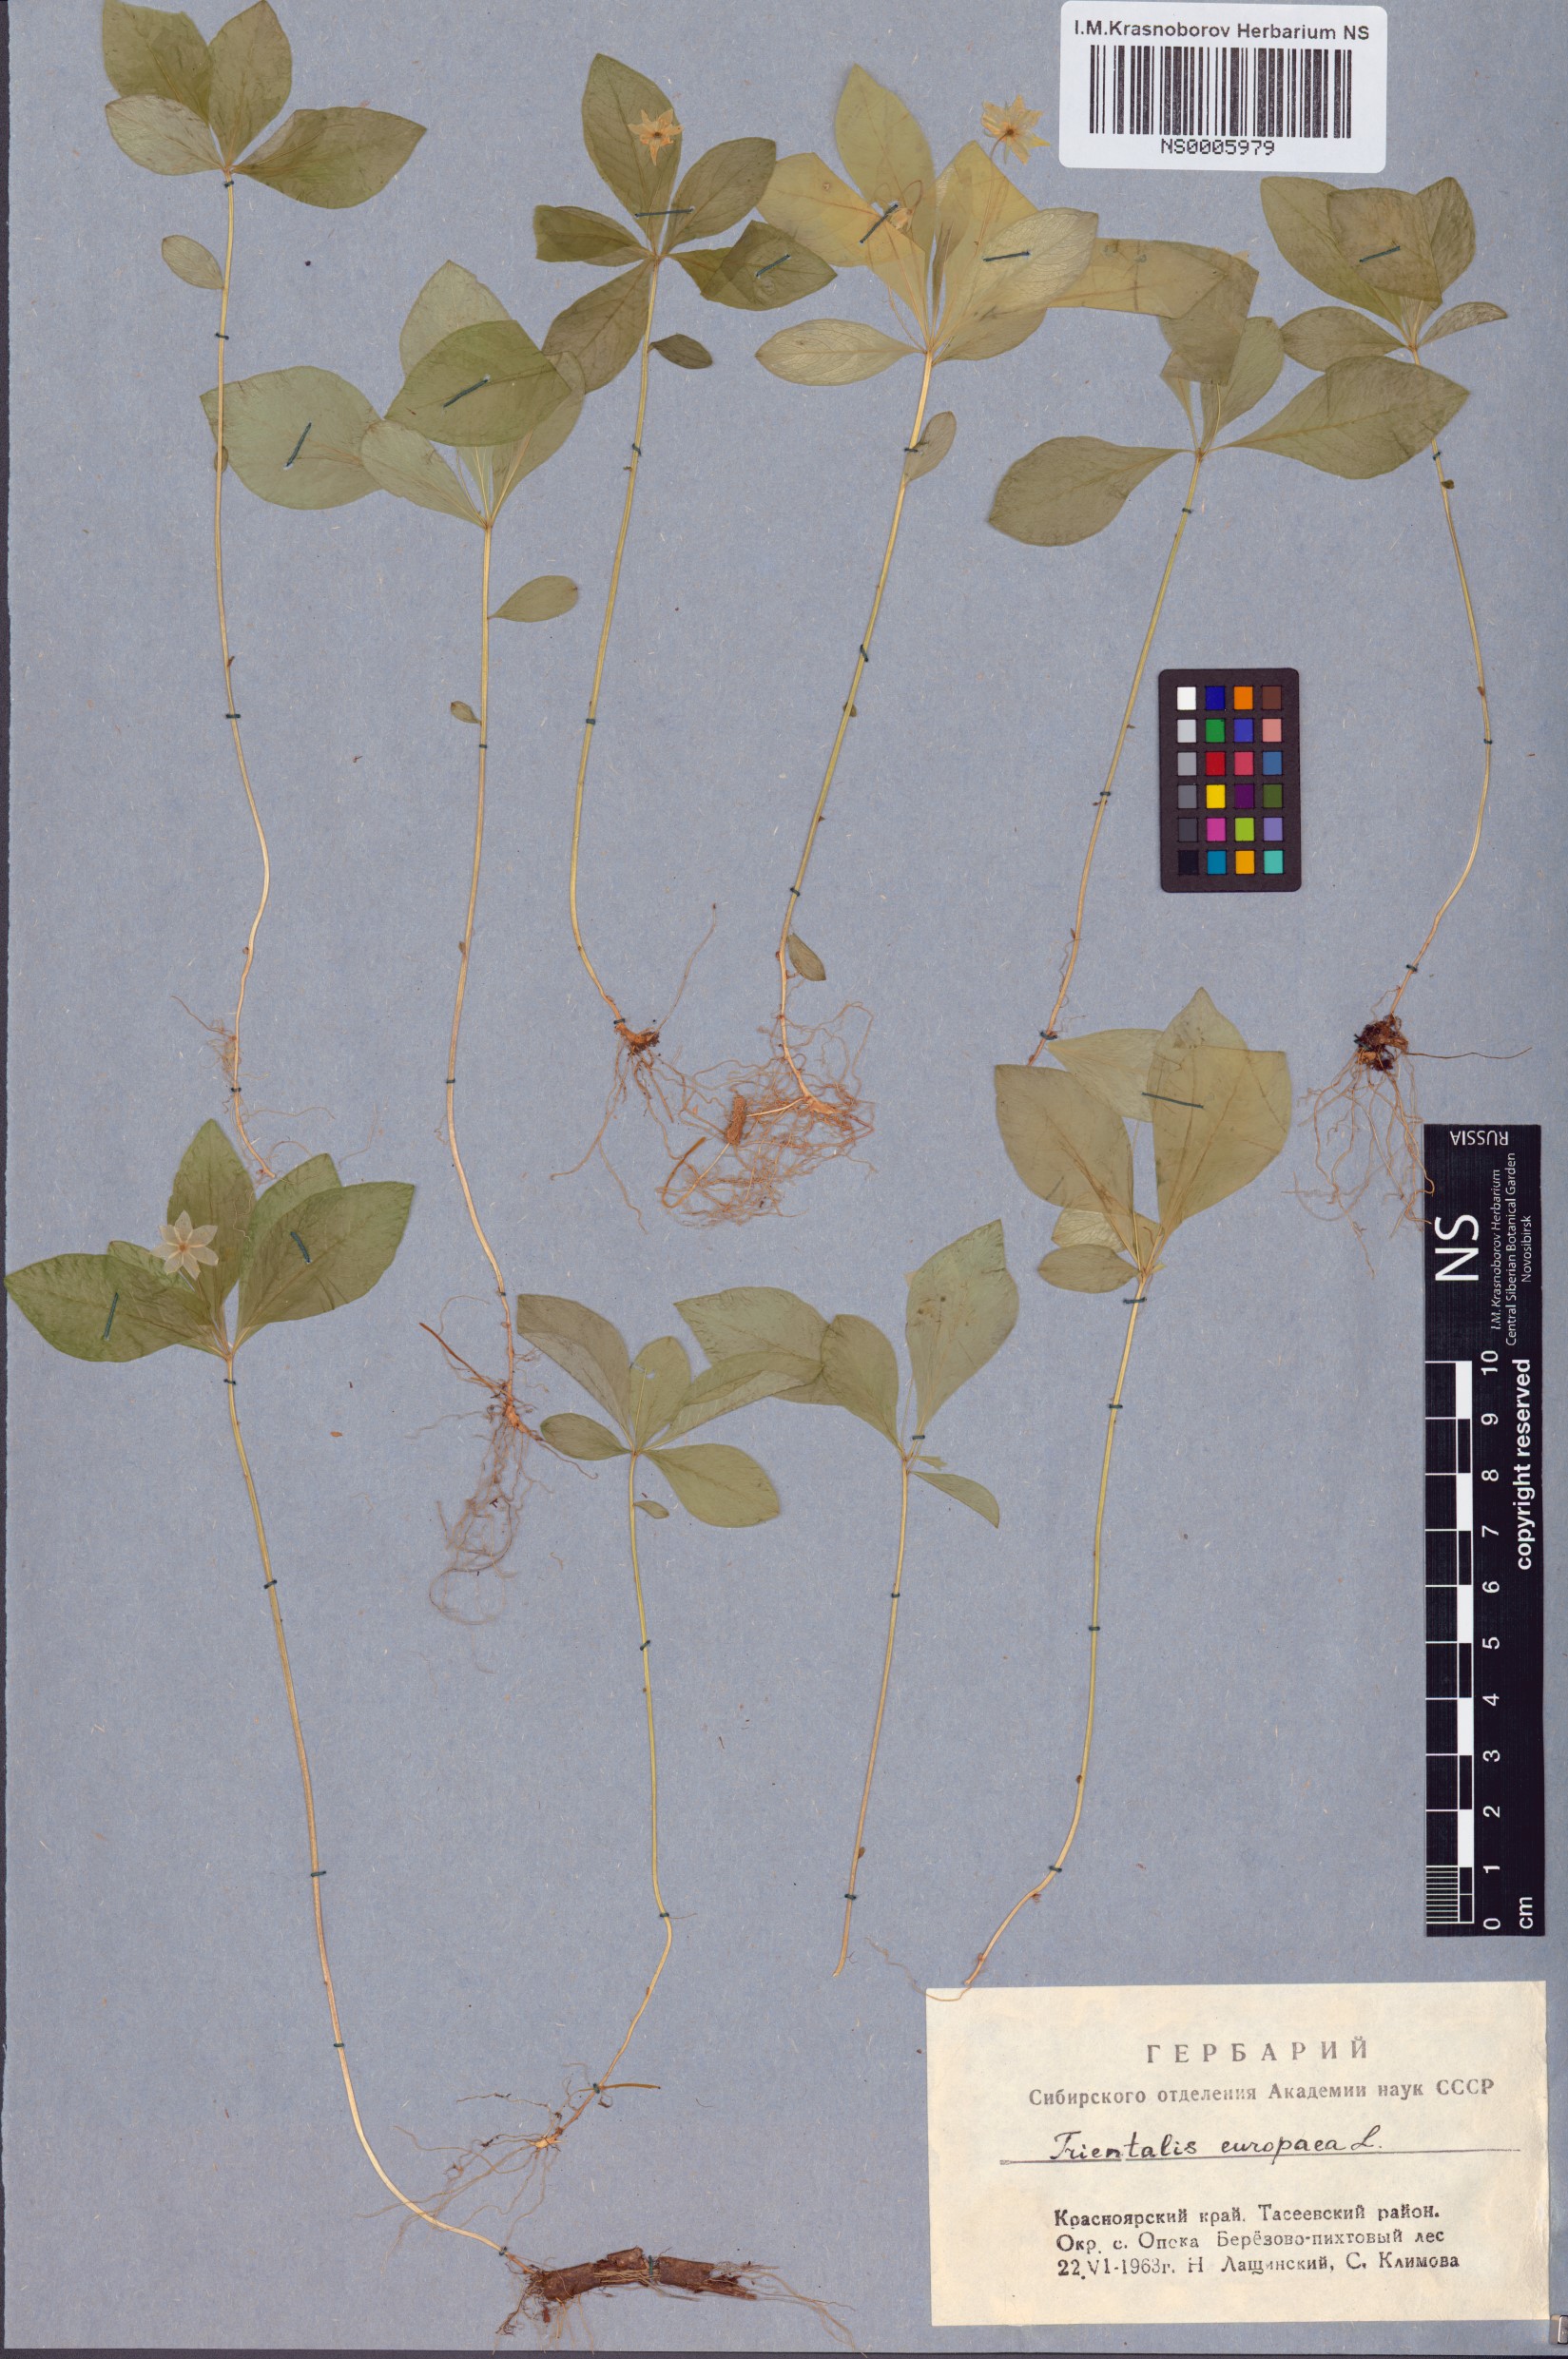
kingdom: Plantae
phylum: Tracheophyta
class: Magnoliopsida
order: Ericales
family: Primulaceae
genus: Lysimachia
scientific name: Lysimachia europaea
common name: Arctic starflower
